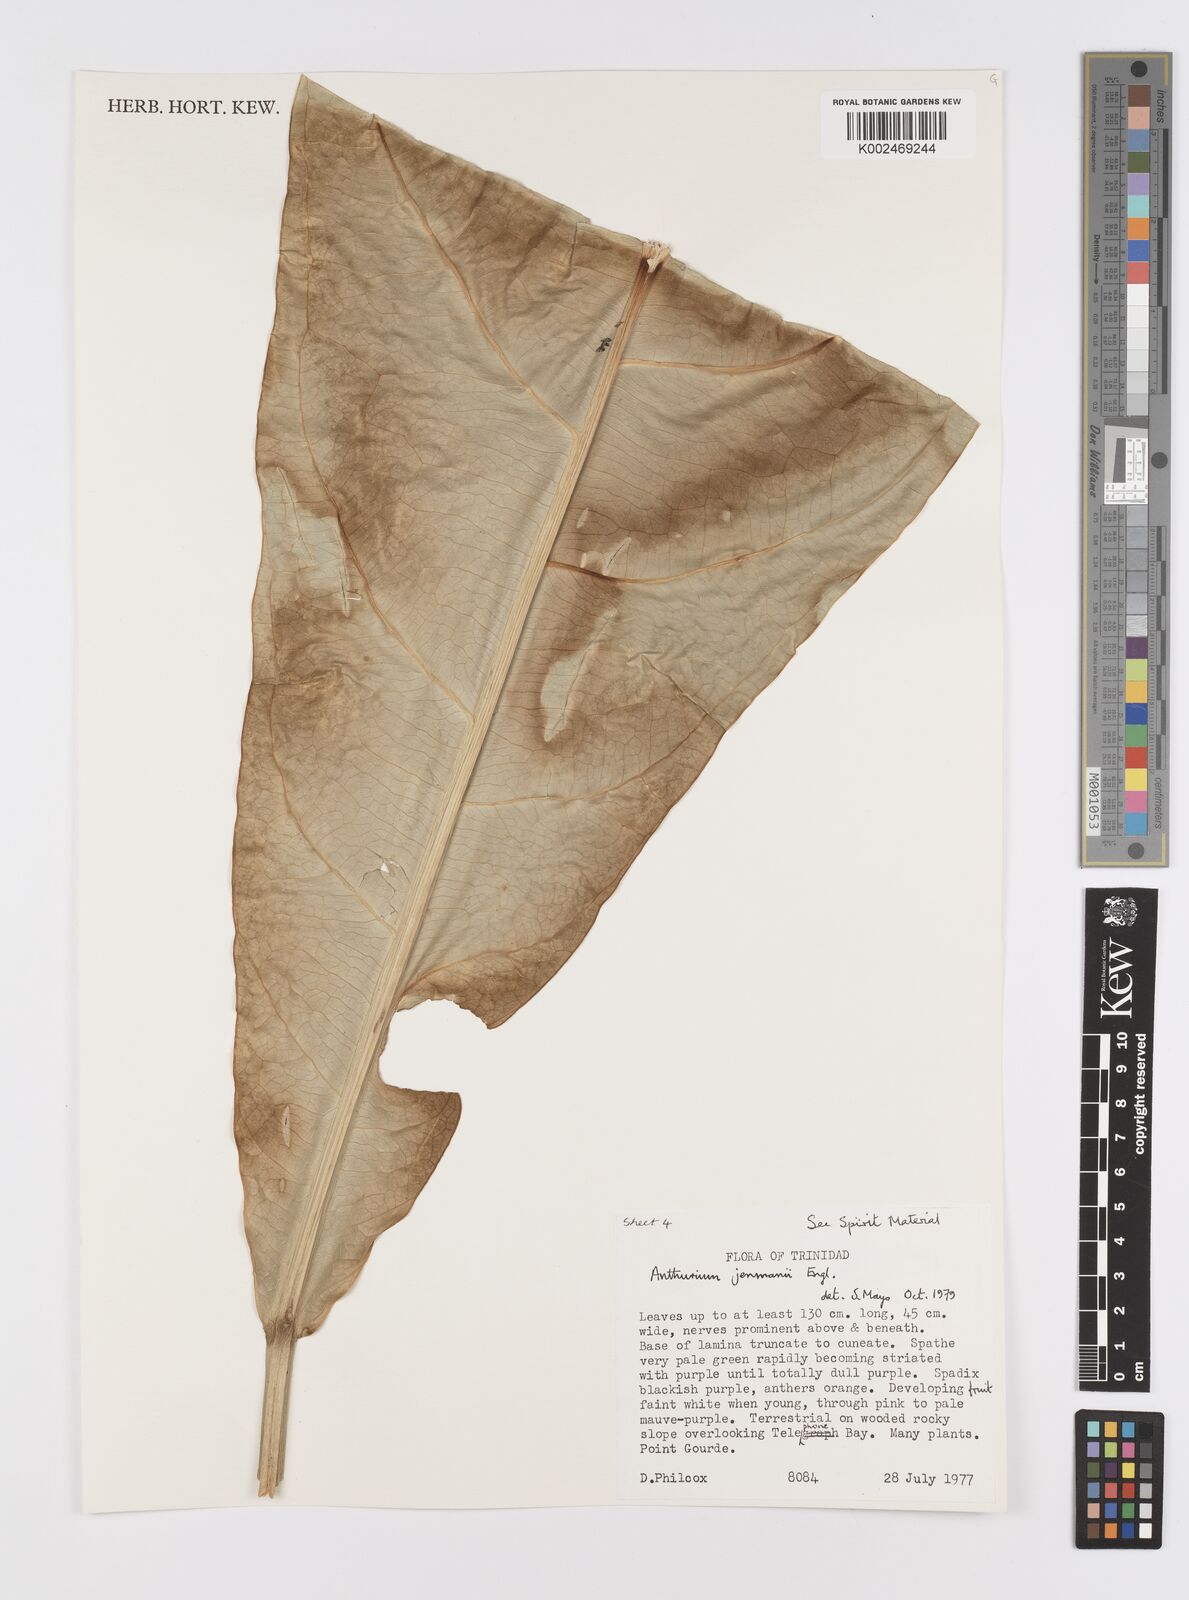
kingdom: Plantae
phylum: Tracheophyta
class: Liliopsida
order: Alismatales
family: Araceae
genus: Anthurium
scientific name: Anthurium jenmanii
